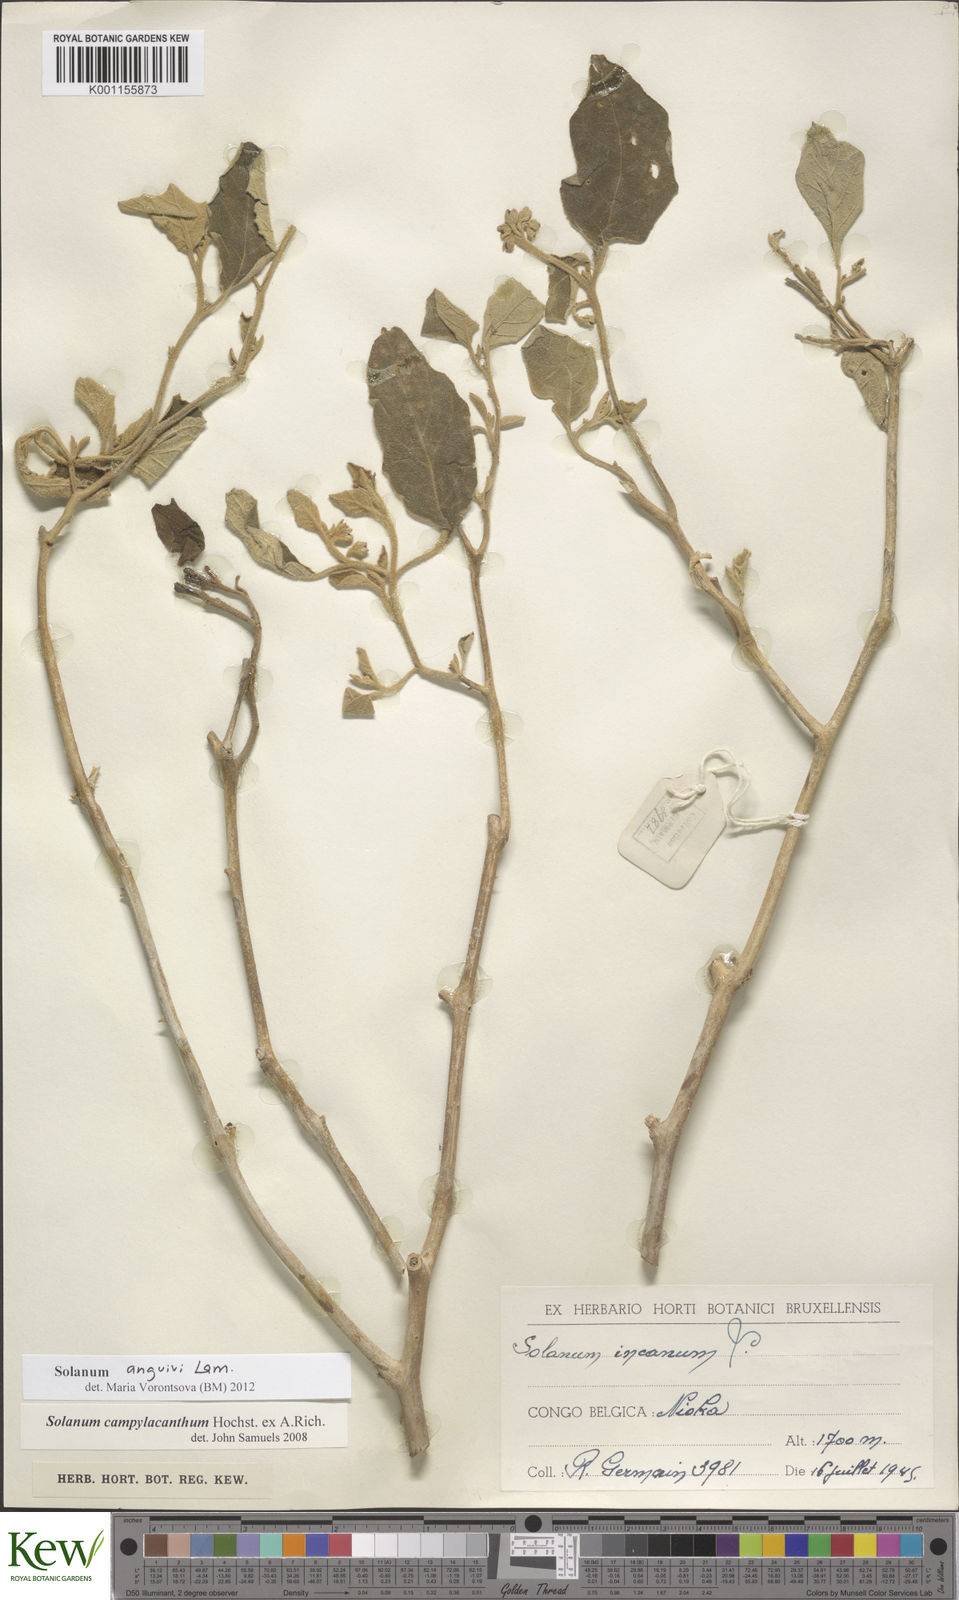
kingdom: Plantae
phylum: Tracheophyta
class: Magnoliopsida
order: Solanales
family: Solanaceae
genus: Solanum
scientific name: Solanum anguivi
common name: Forest bitterberry
